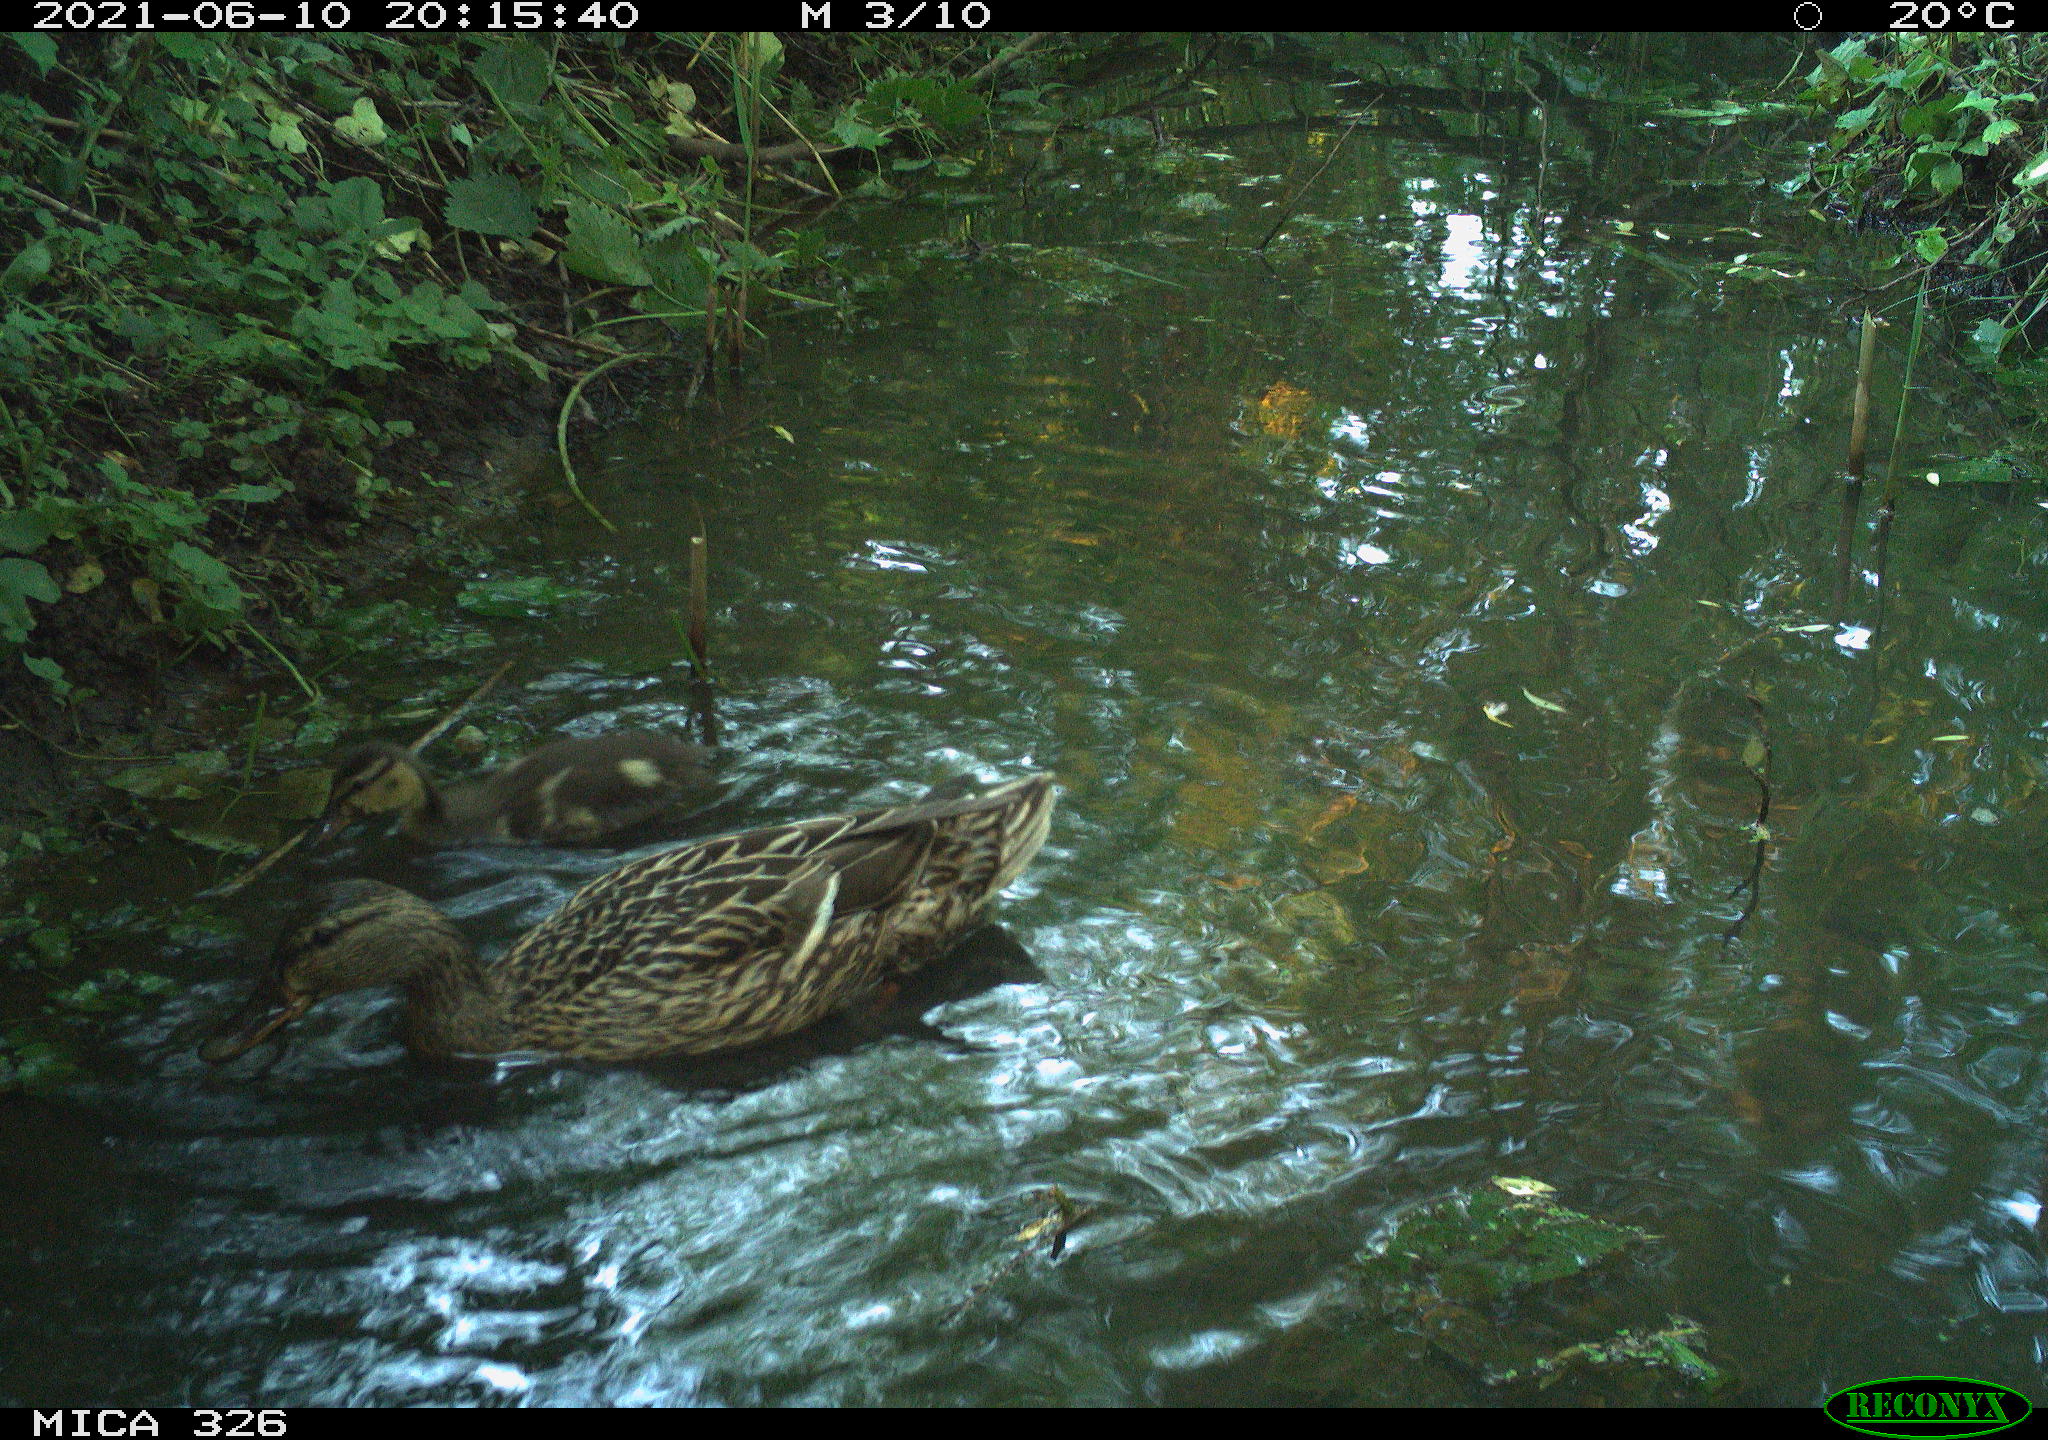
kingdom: Animalia
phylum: Chordata
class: Aves
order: Anseriformes
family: Anatidae
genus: Anas
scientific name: Anas platyrhynchos
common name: Mallard
